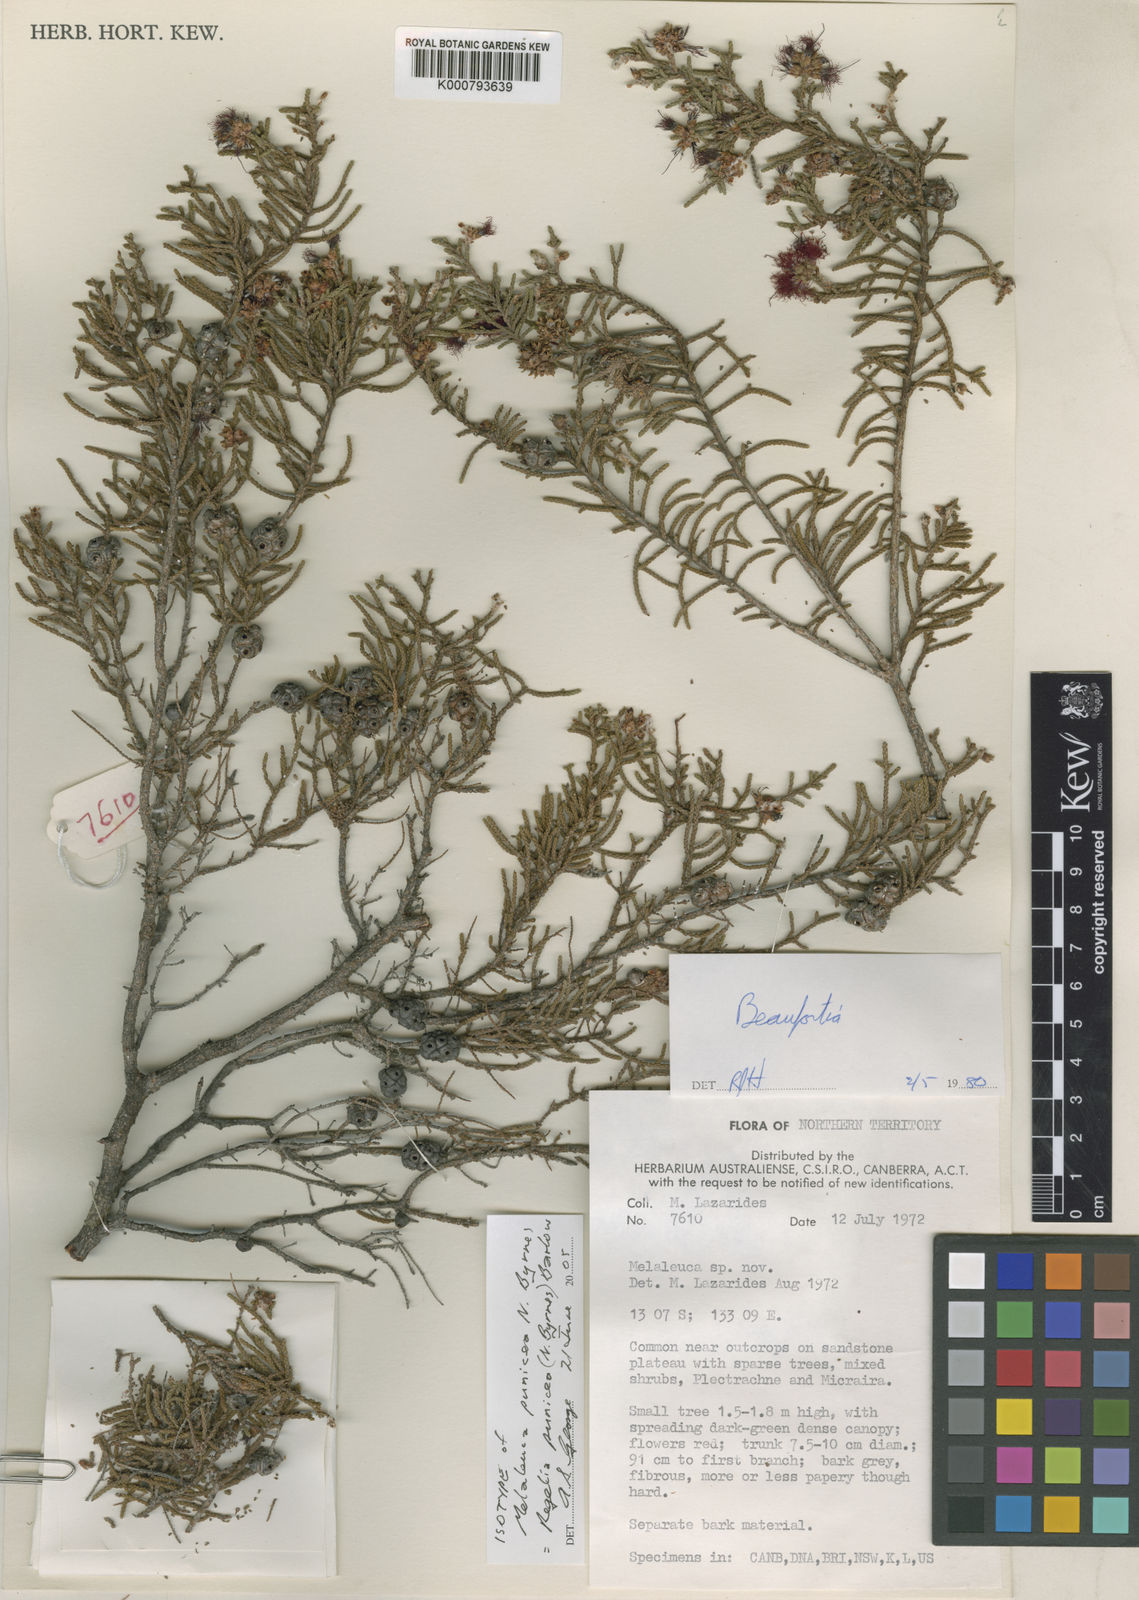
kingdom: Plantae
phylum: Tracheophyta
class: Magnoliopsida
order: Myrtales
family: Myrtaceae
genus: Melaleuca
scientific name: Melaleuca punicea
